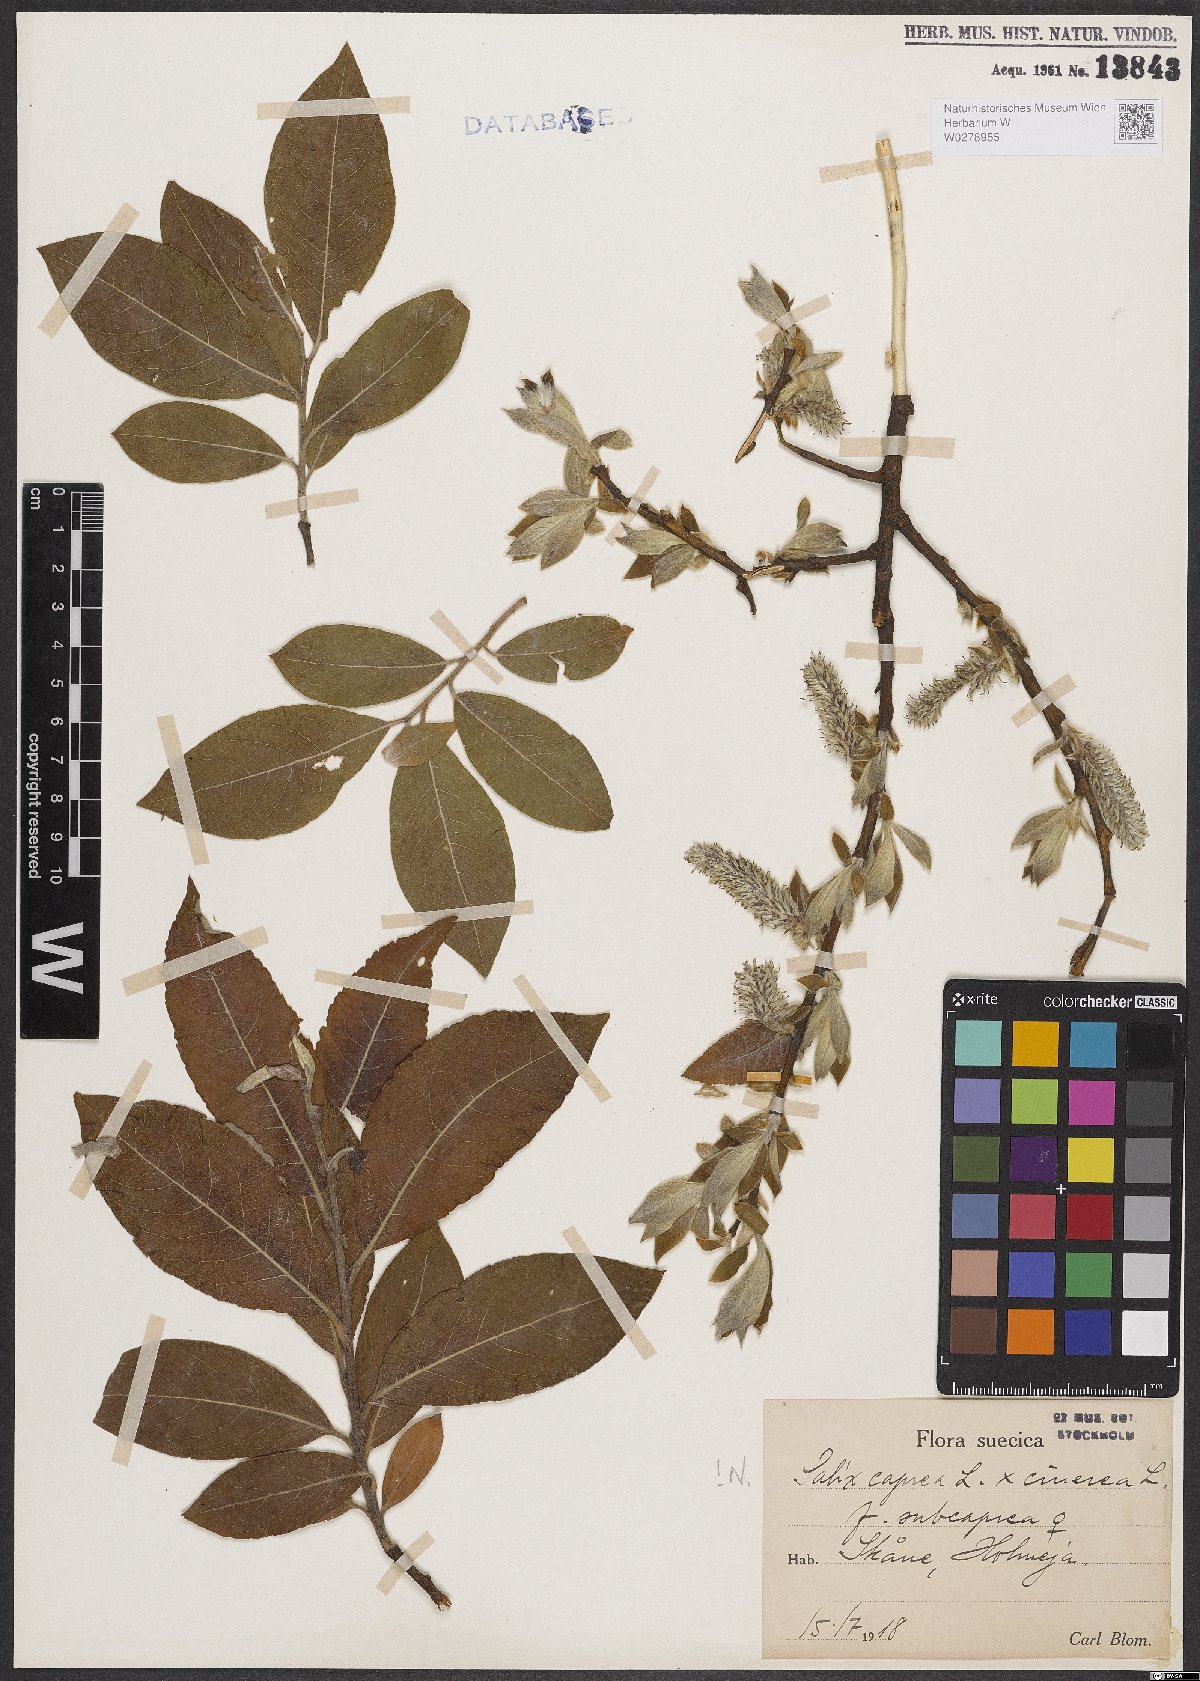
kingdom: Plantae
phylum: Tracheophyta
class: Magnoliopsida
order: Malpighiales
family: Salicaceae
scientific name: Salicaceae
